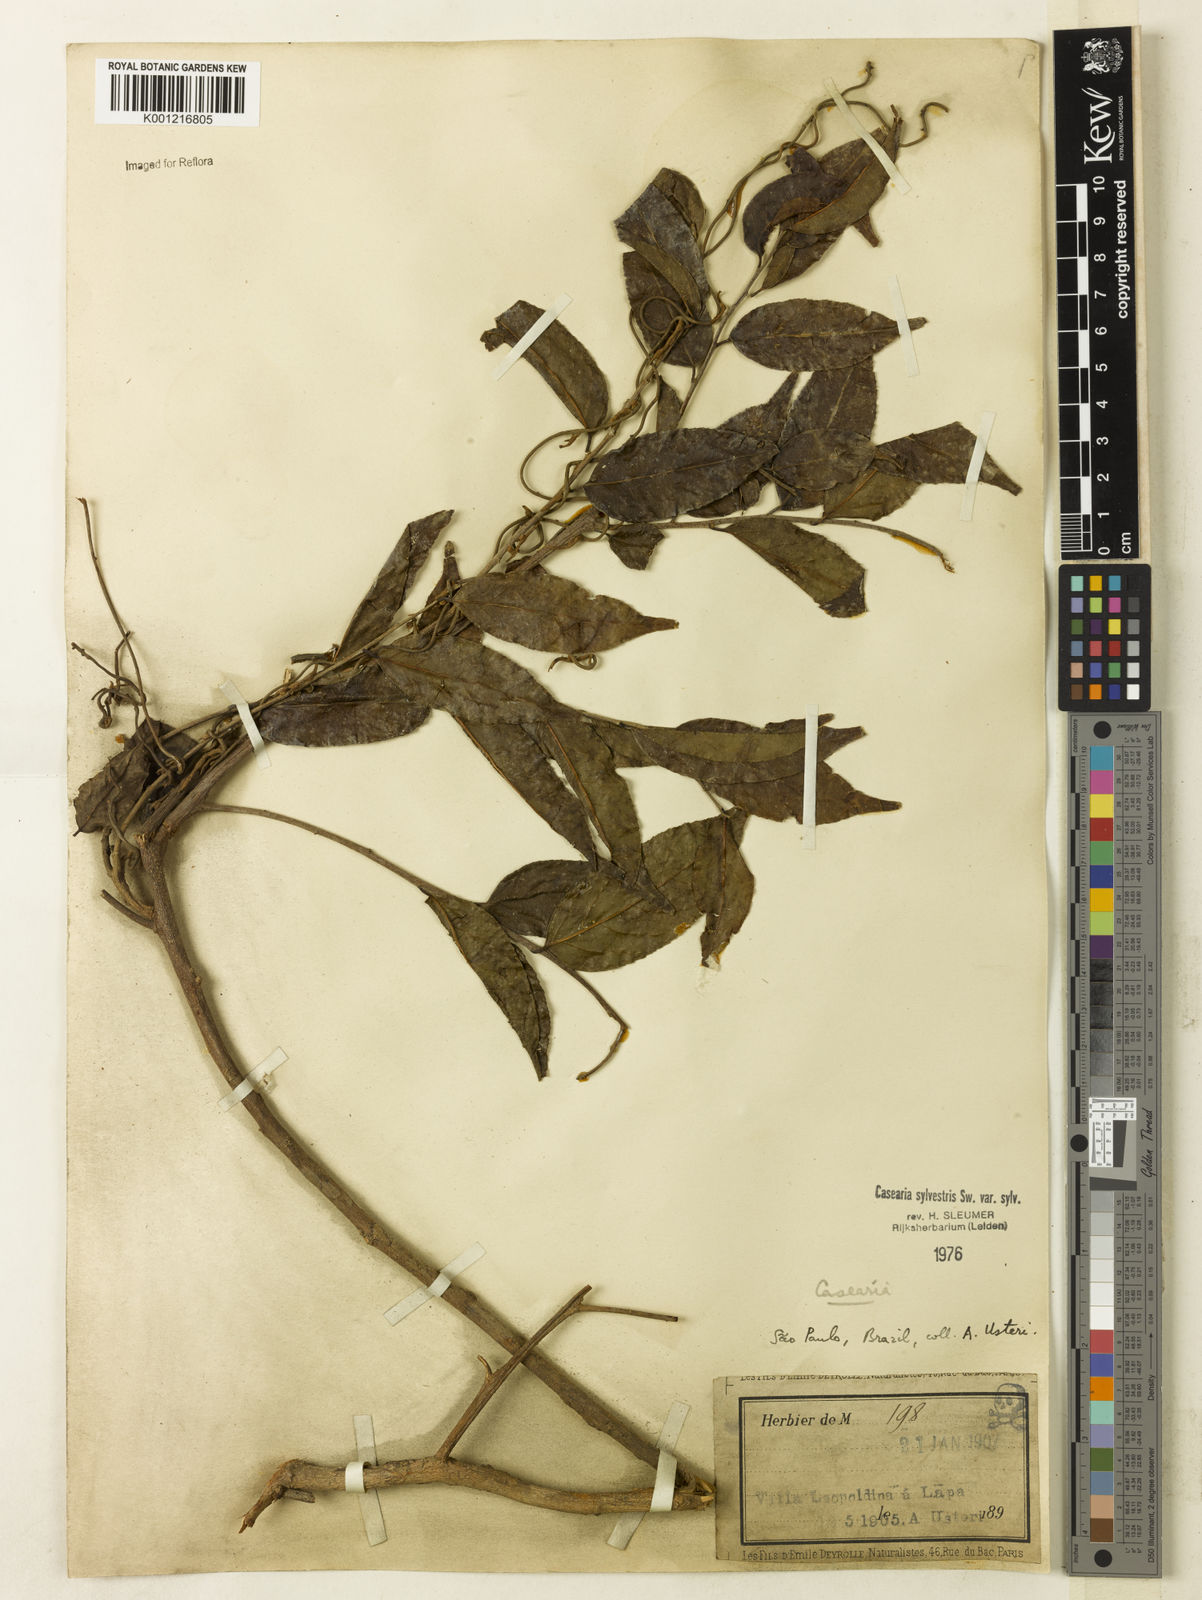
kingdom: Plantae
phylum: Tracheophyta
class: Magnoliopsida
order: Malpighiales
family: Salicaceae
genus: Casearia
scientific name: Casearia sylvestris
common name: Wild sage
